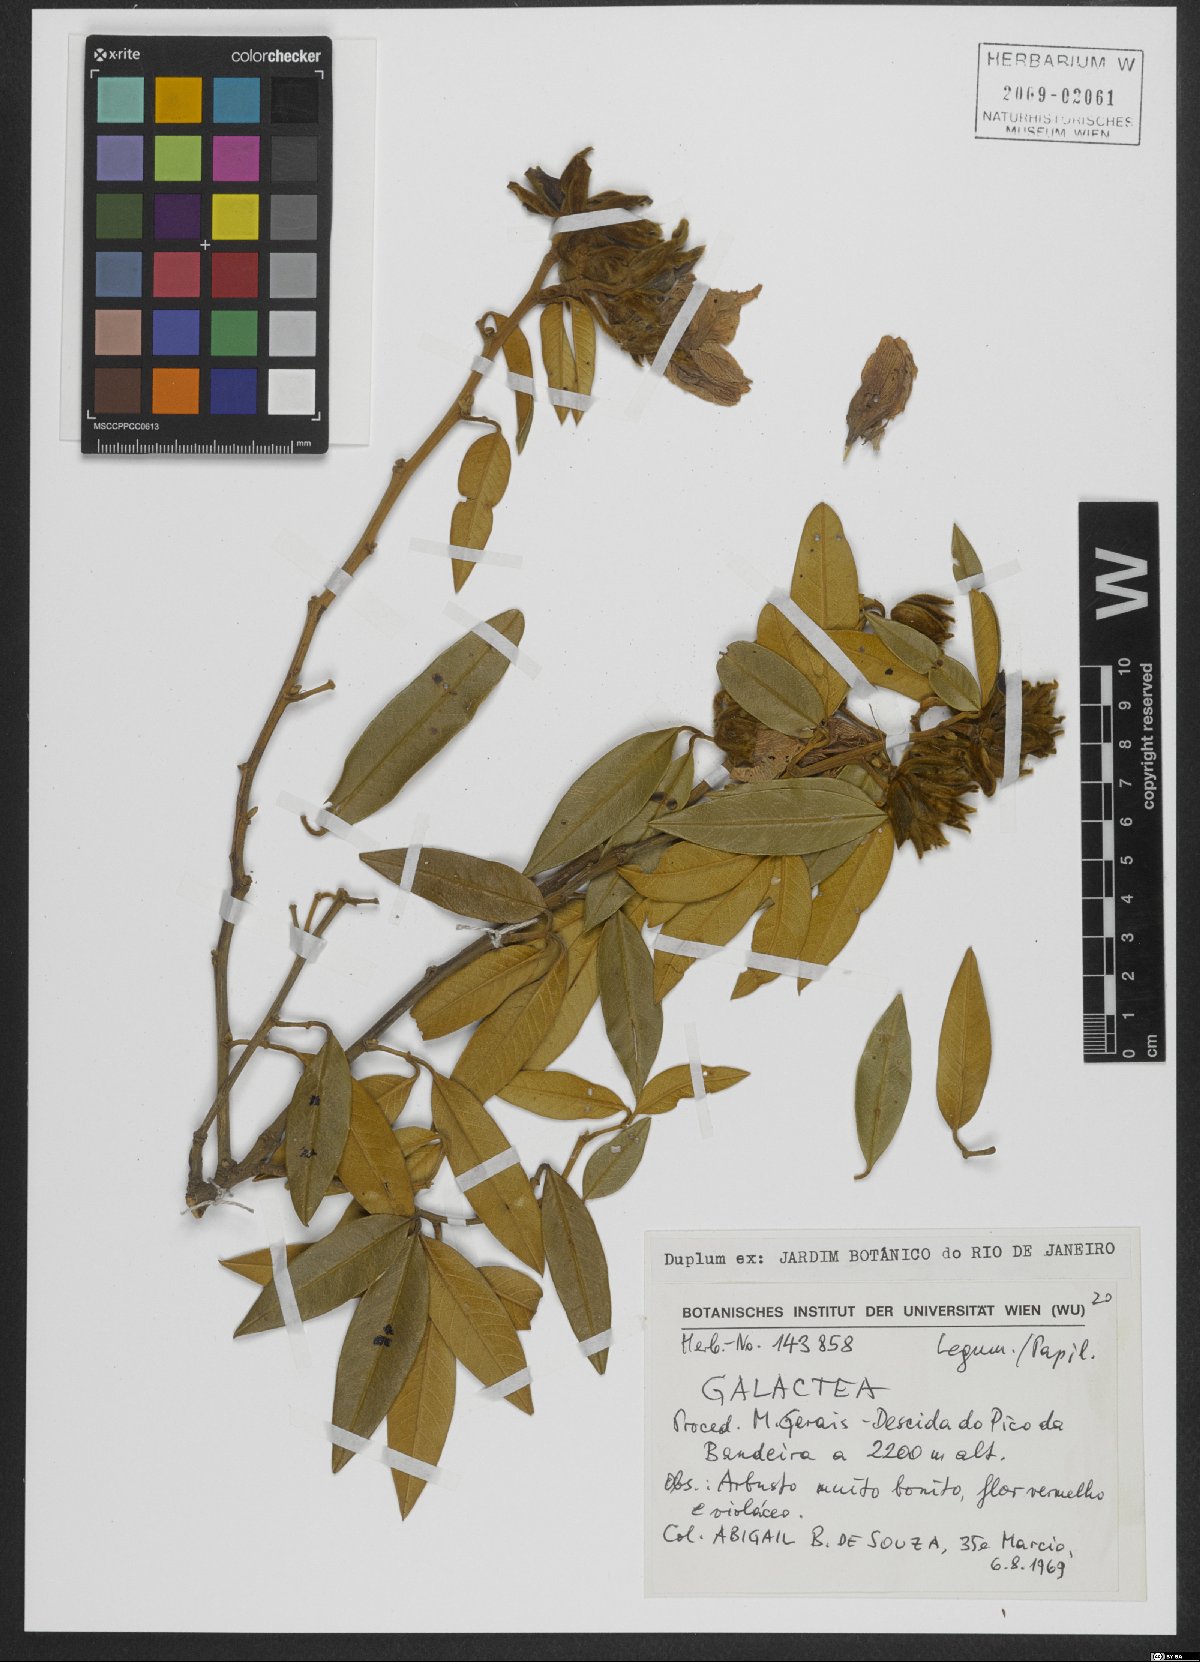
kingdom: Plantae
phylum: Tracheophyta
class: Magnoliopsida
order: Fabales
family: Fabaceae
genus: Galactia
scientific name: Galactia striata
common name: Florida hammock milkpea
